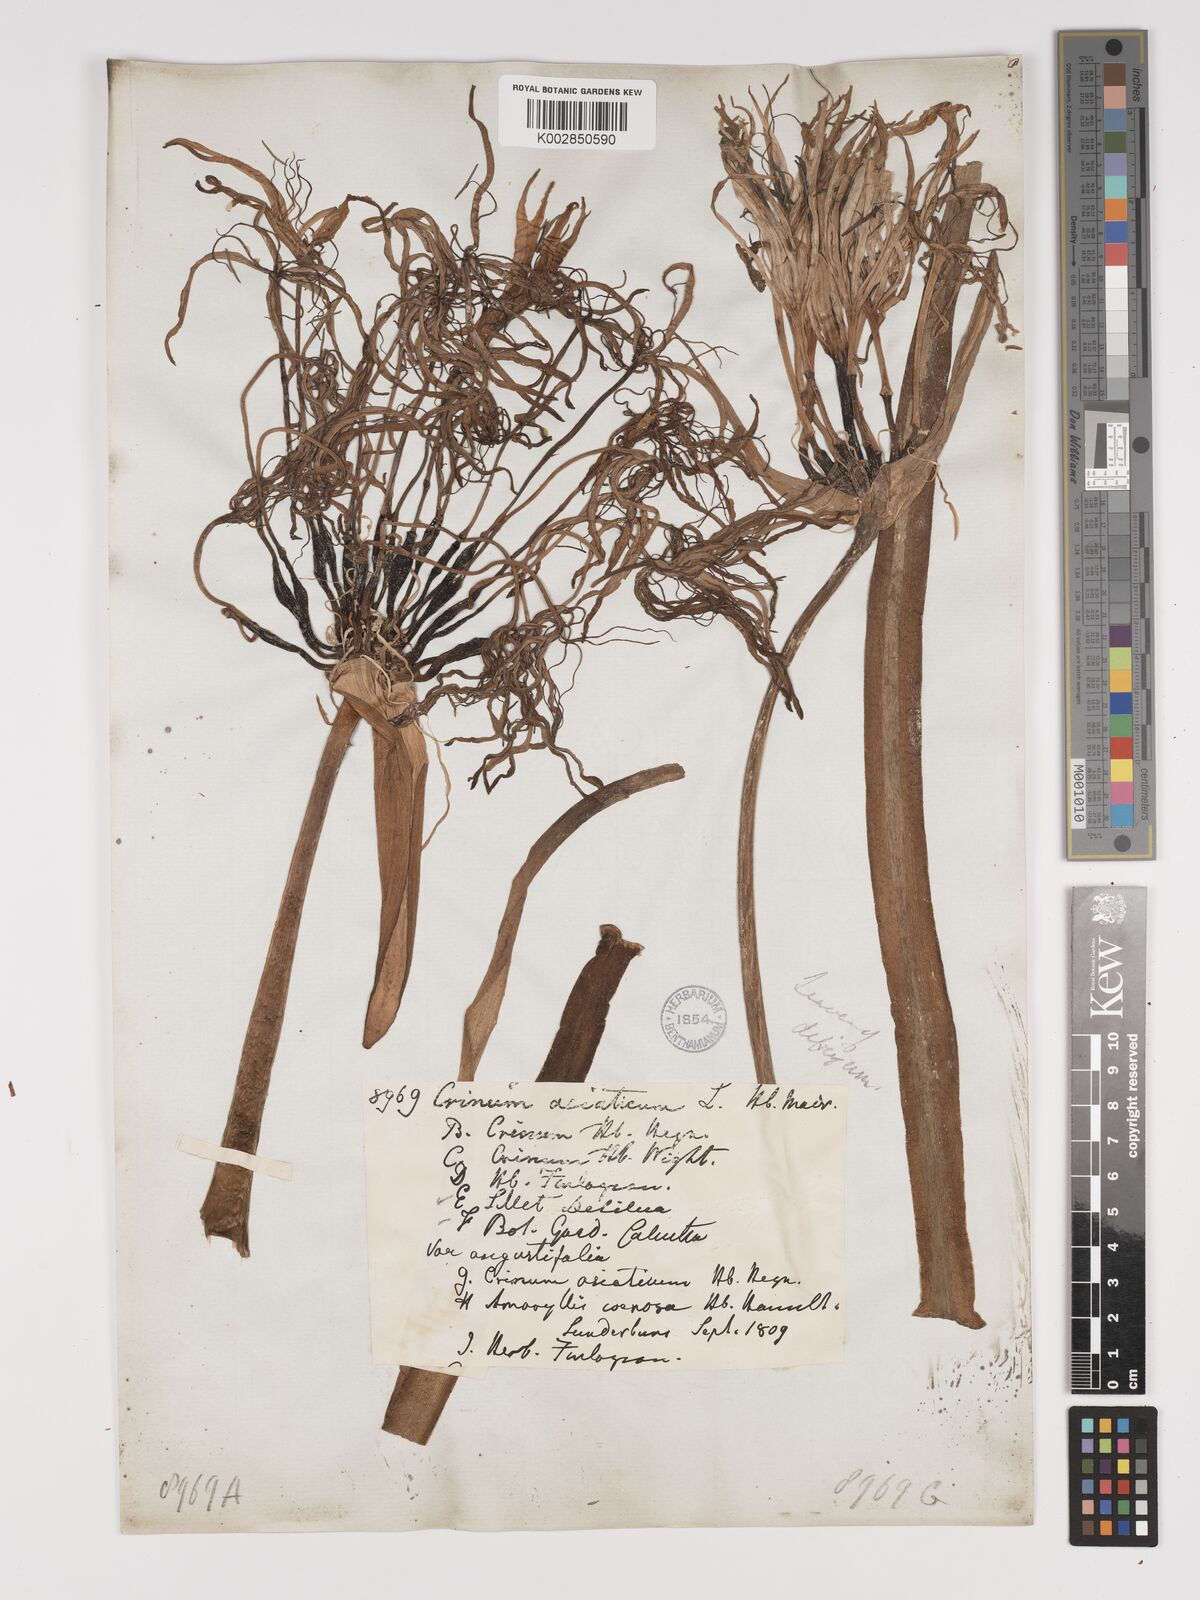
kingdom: Plantae
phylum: Tracheophyta
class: Liliopsida
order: Asparagales
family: Amaryllidaceae
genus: Crinum
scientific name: Crinum asiaticum
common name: Poisonbulb
